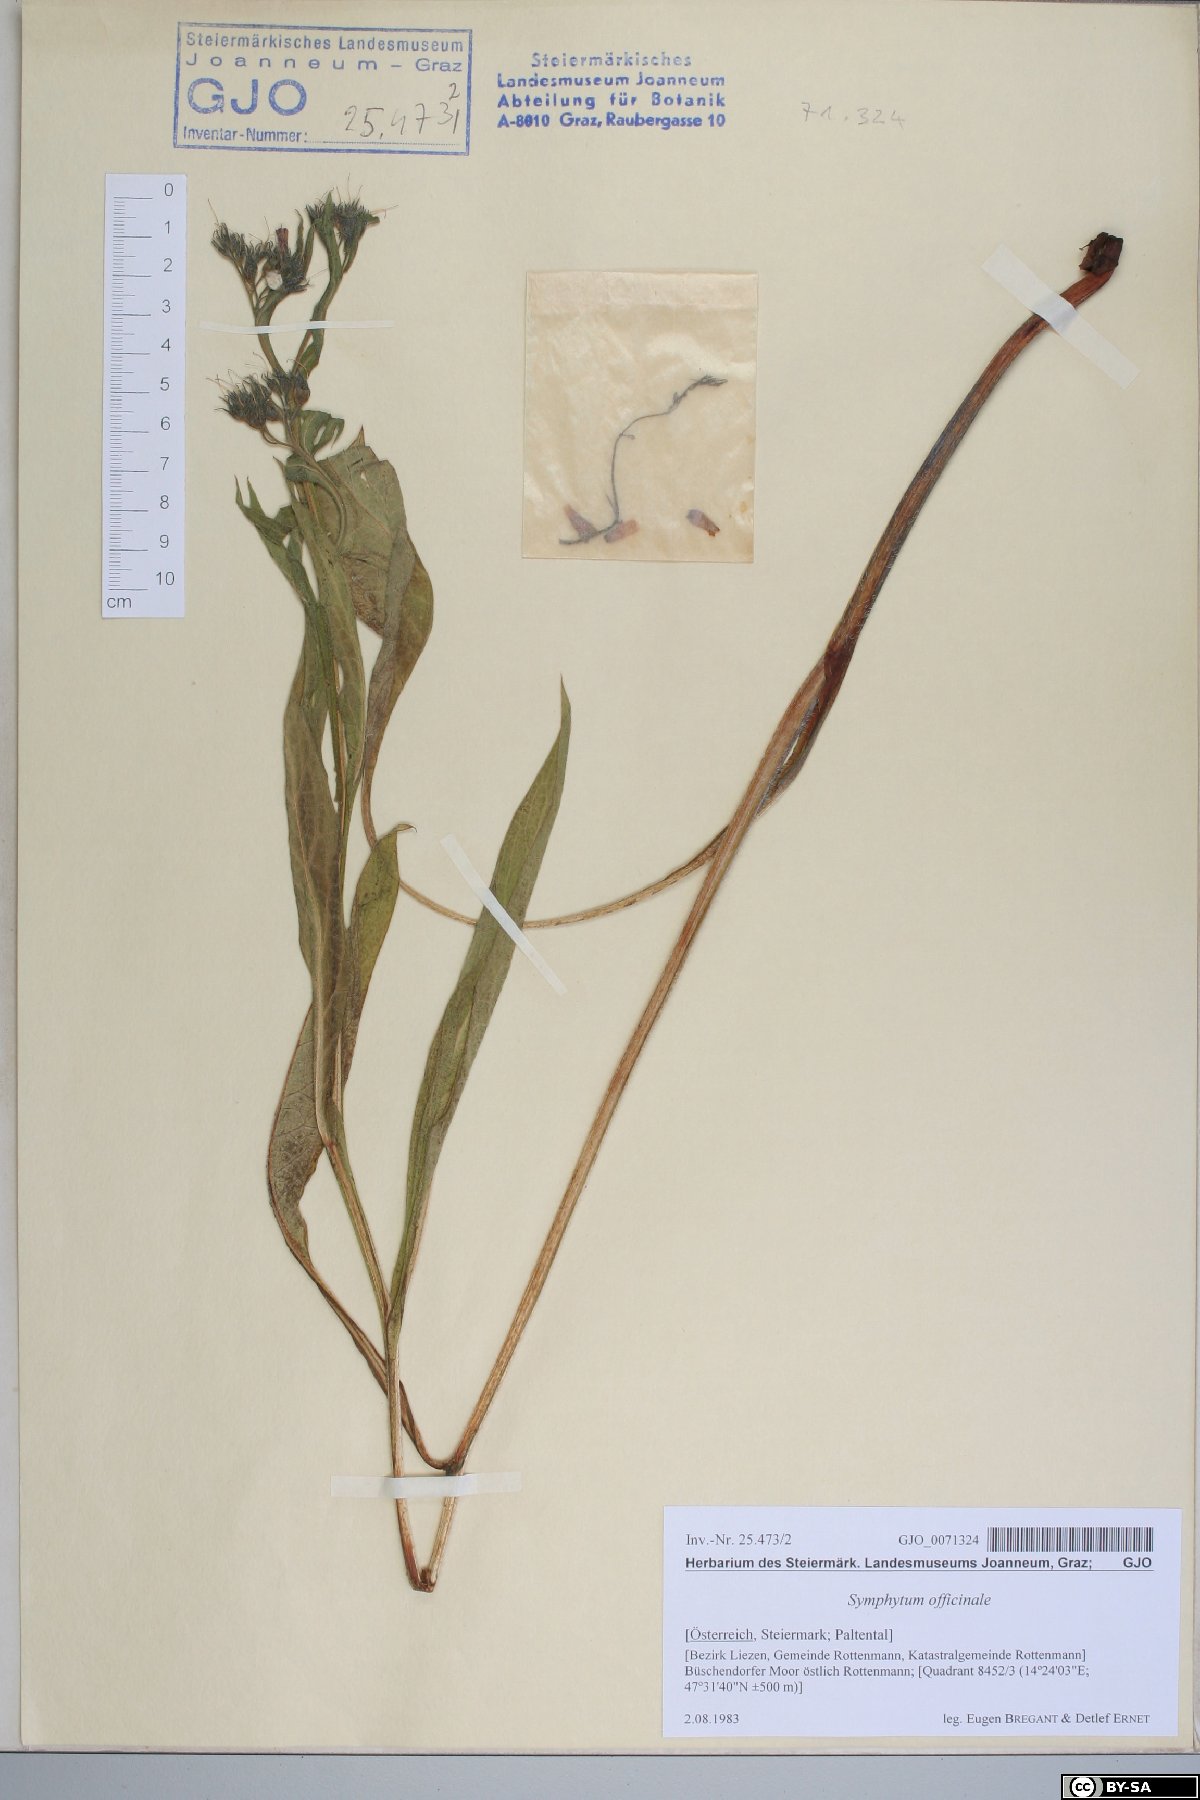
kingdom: Plantae
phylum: Tracheophyta
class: Magnoliopsida
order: Boraginales
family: Boraginaceae
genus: Symphytum
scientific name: Symphytum officinale
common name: Common comfrey
